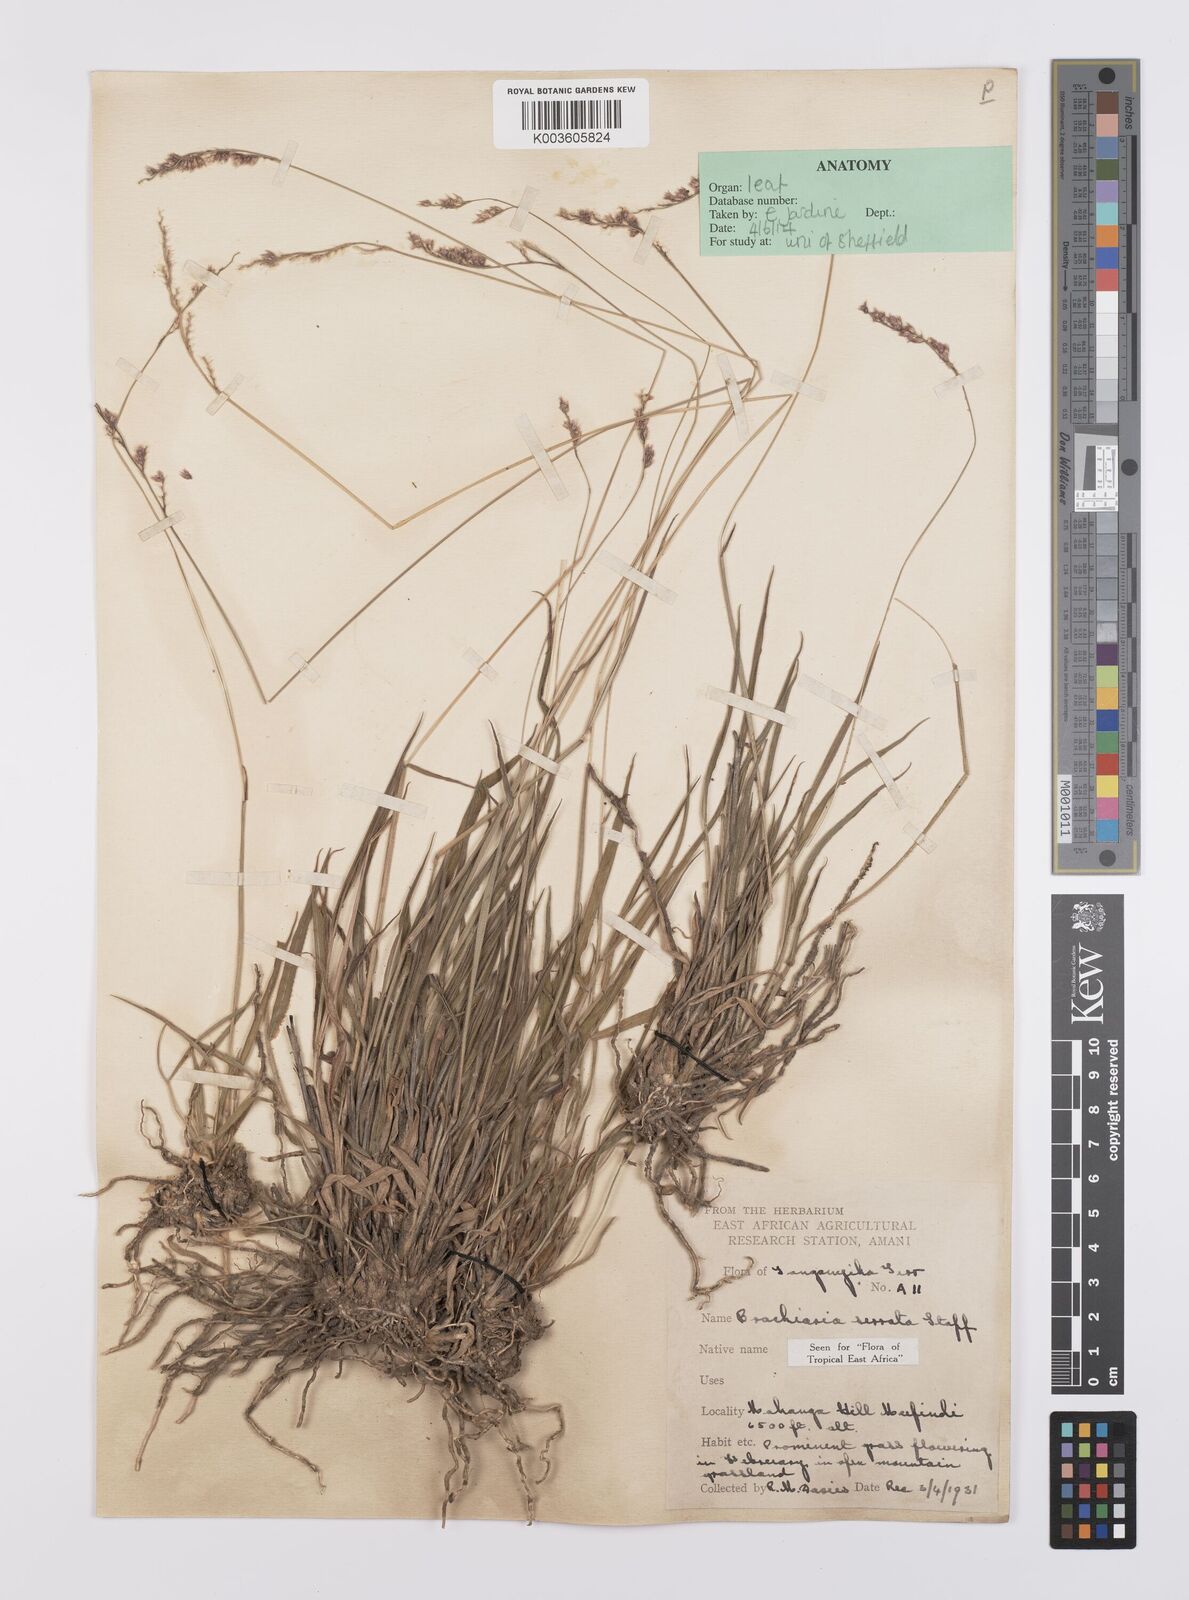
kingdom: Plantae
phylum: Tracheophyta
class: Liliopsida
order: Poales
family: Poaceae
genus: Urochloa
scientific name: Urochloa serrata
